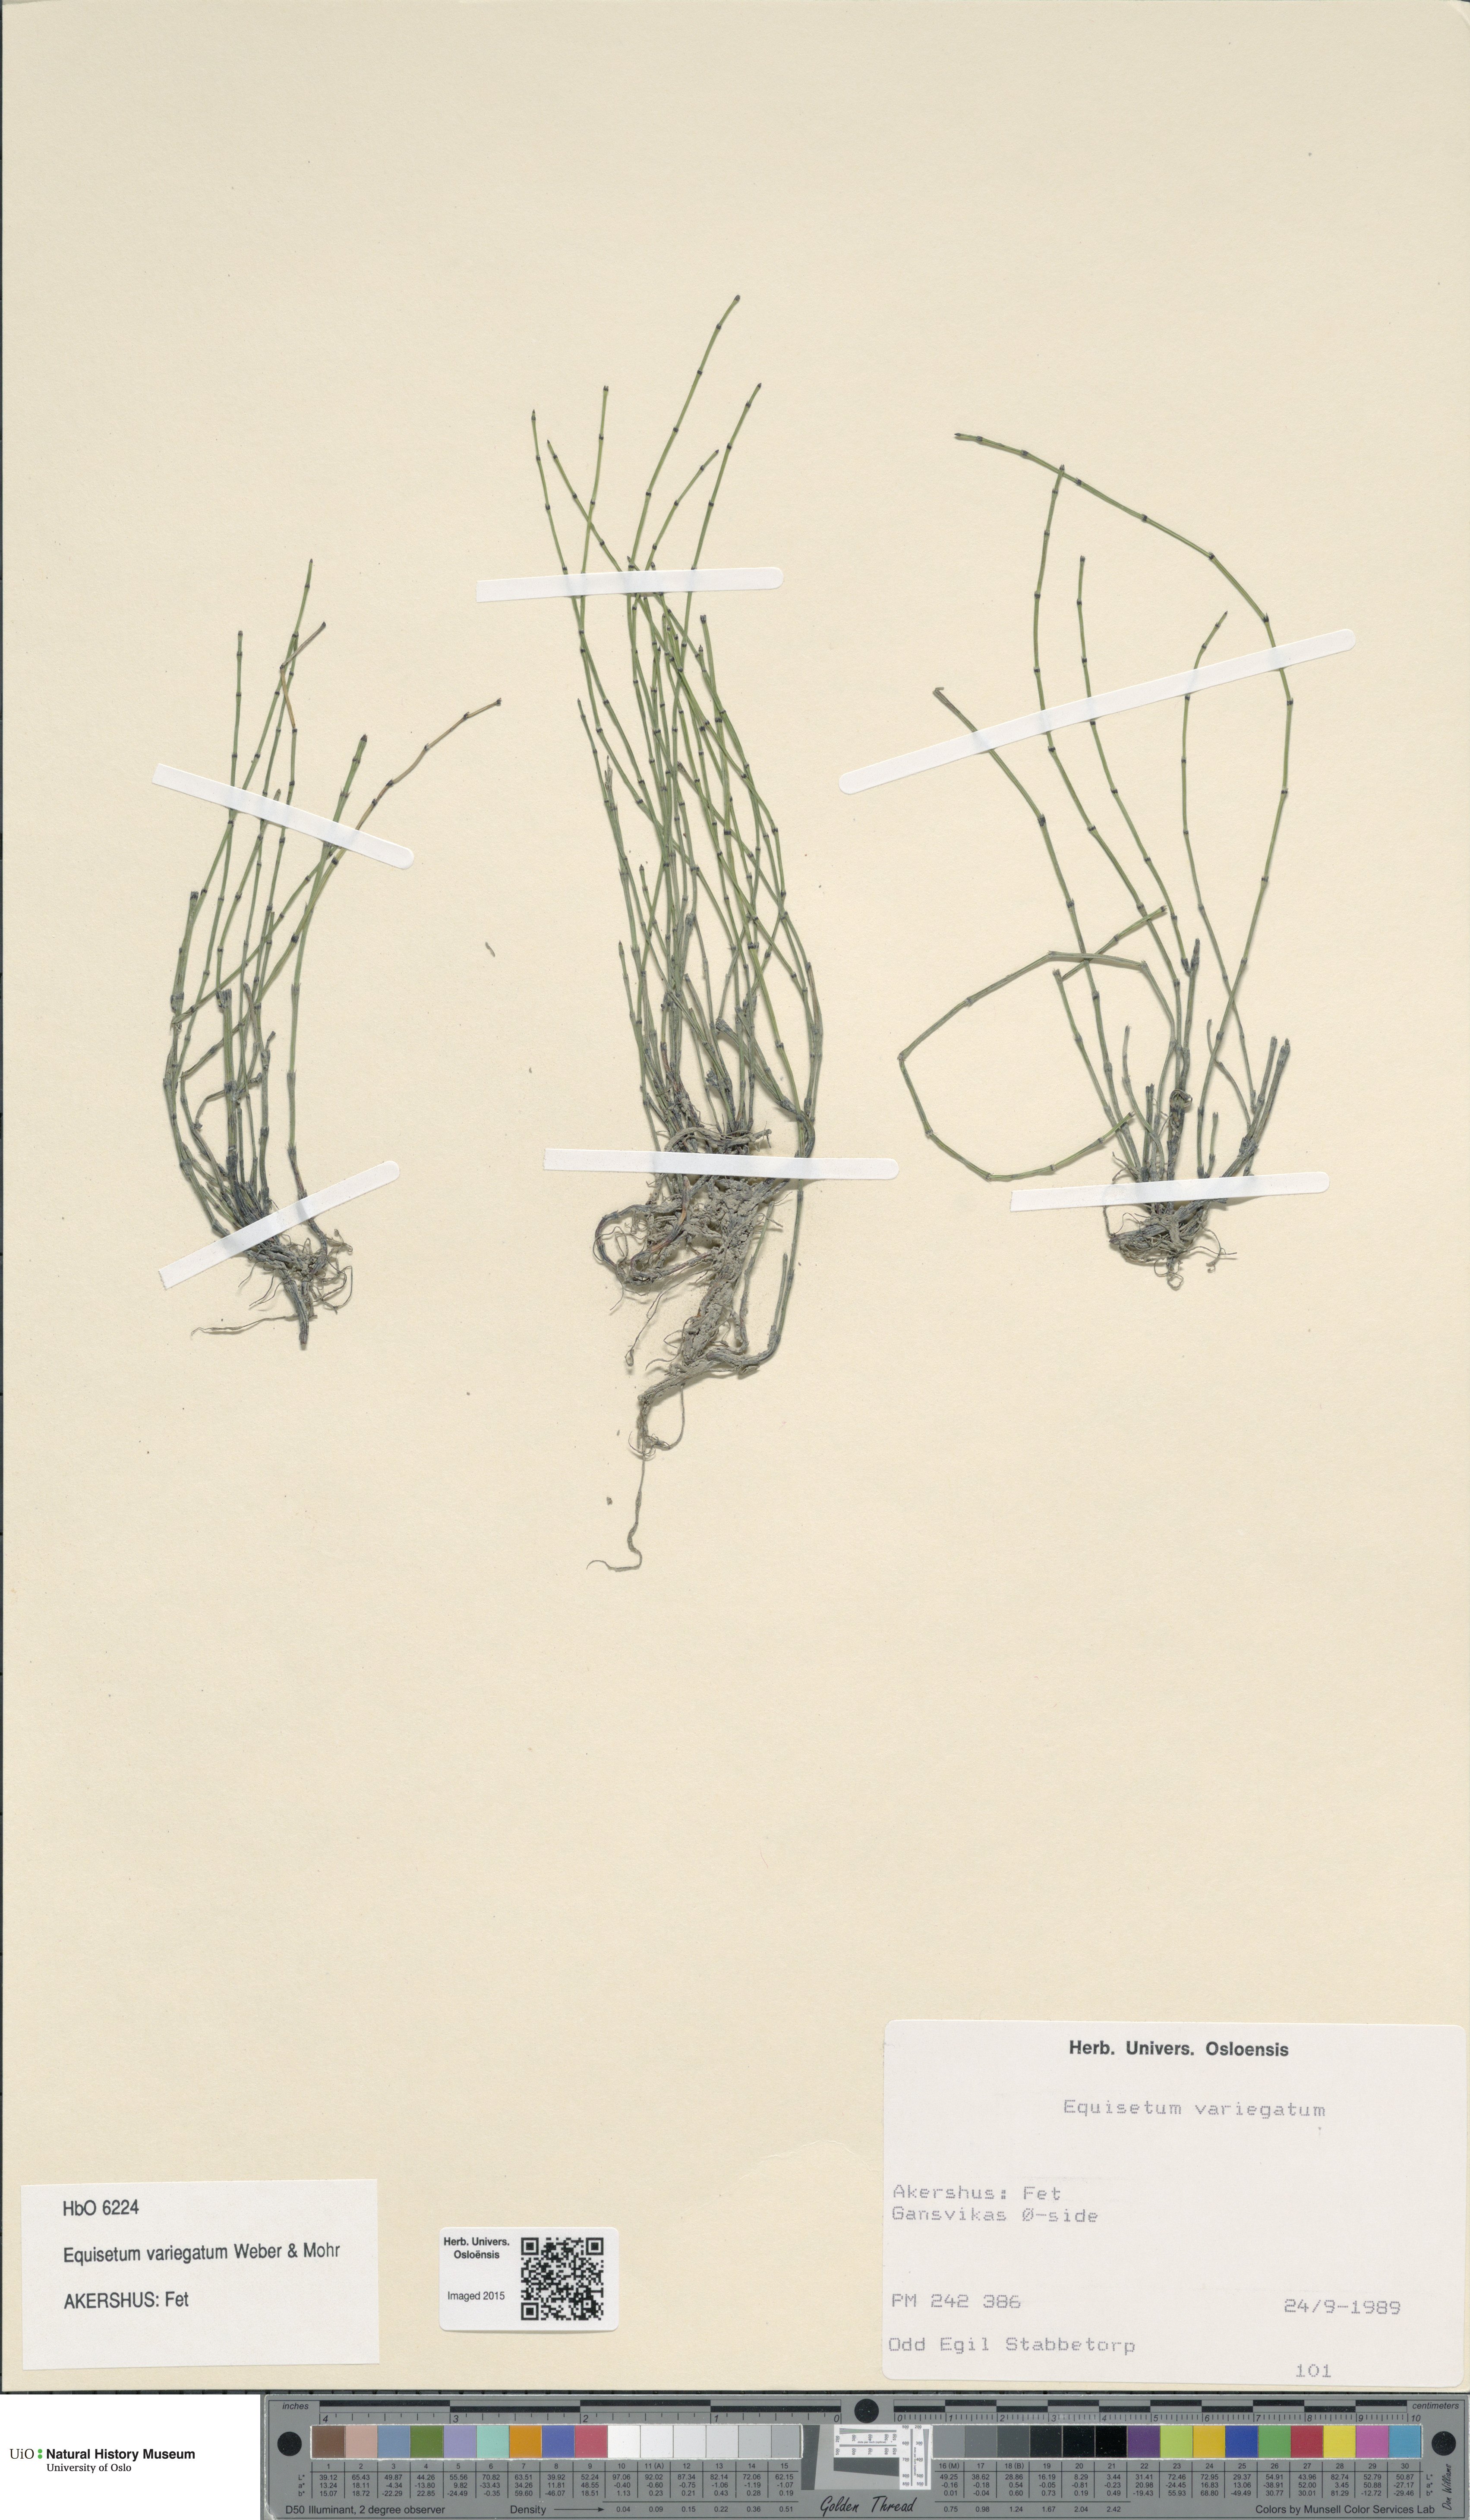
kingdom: Plantae
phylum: Tracheophyta
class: Polypodiopsida
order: Equisetales
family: Equisetaceae
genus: Equisetum
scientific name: Equisetum variegatum
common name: Variegated horsetail
